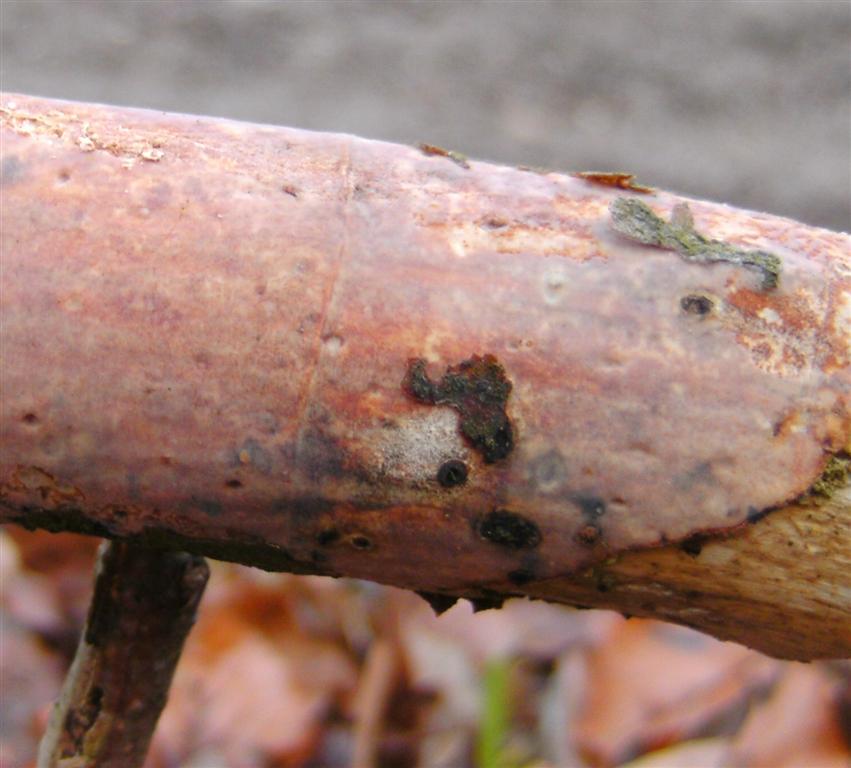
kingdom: Fungi
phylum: Basidiomycota
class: Agaricomycetes
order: Corticiales
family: Vuilleminiaceae
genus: Vuilleminia
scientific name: Vuilleminia comedens
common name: almindelig barksprænger
